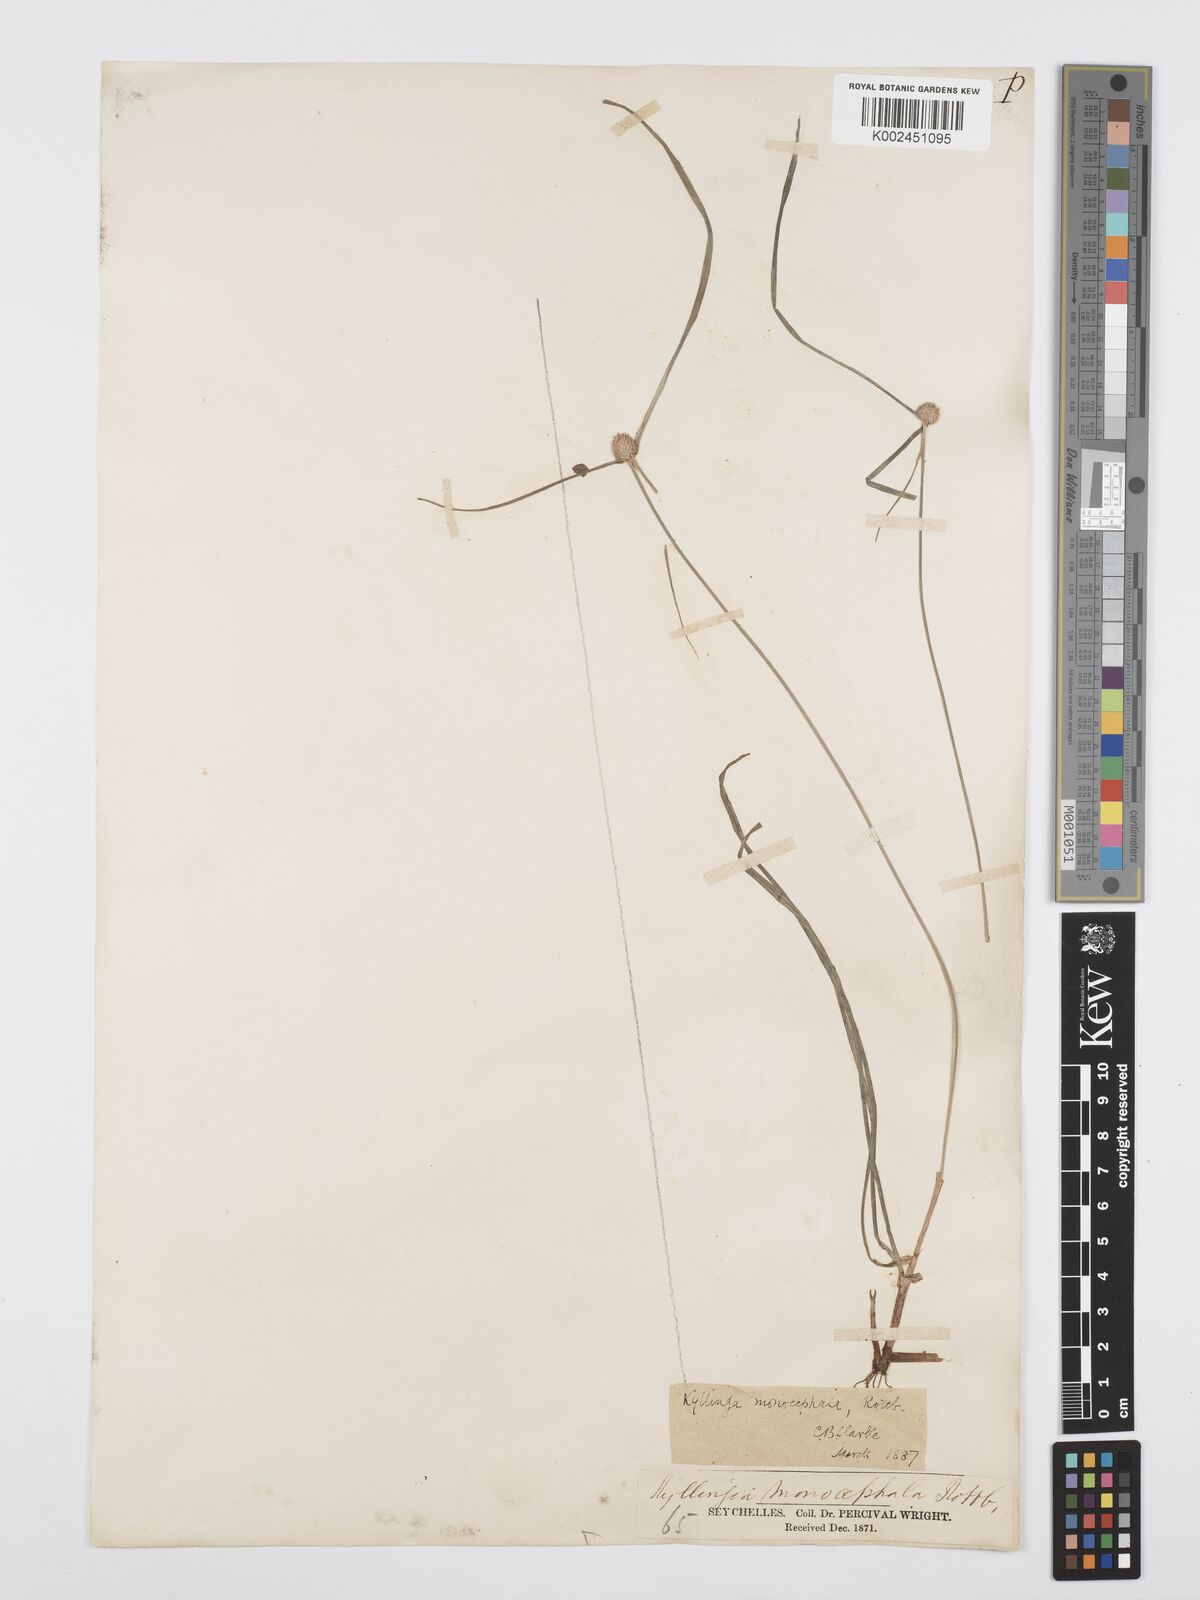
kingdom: Plantae
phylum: Tracheophyta
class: Liliopsida
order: Poales
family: Cyperaceae
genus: Cyperus
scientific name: Cyperus nemoralis
